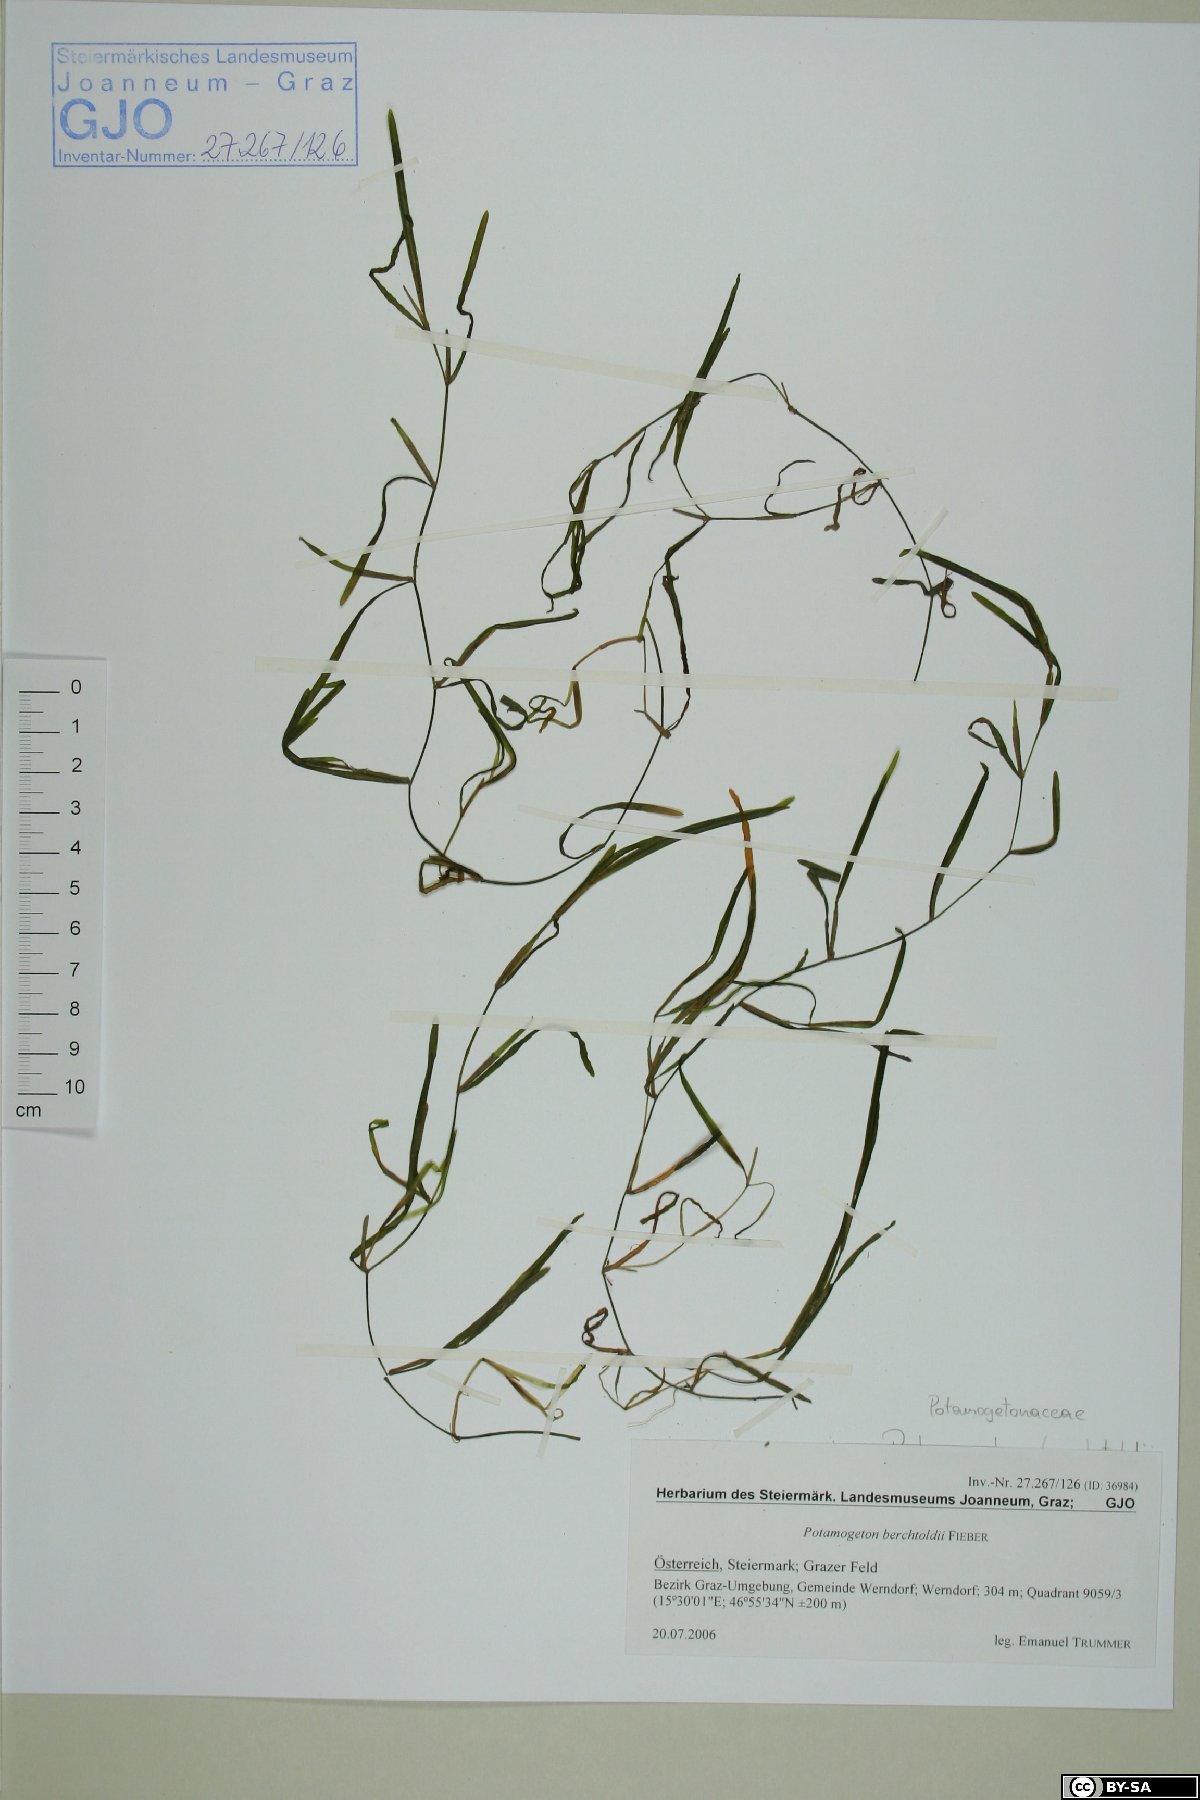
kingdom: Plantae
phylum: Tracheophyta
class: Liliopsida
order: Alismatales
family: Potamogetonaceae
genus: Potamogeton
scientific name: Potamogeton berchtoldii
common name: Small pondweed
